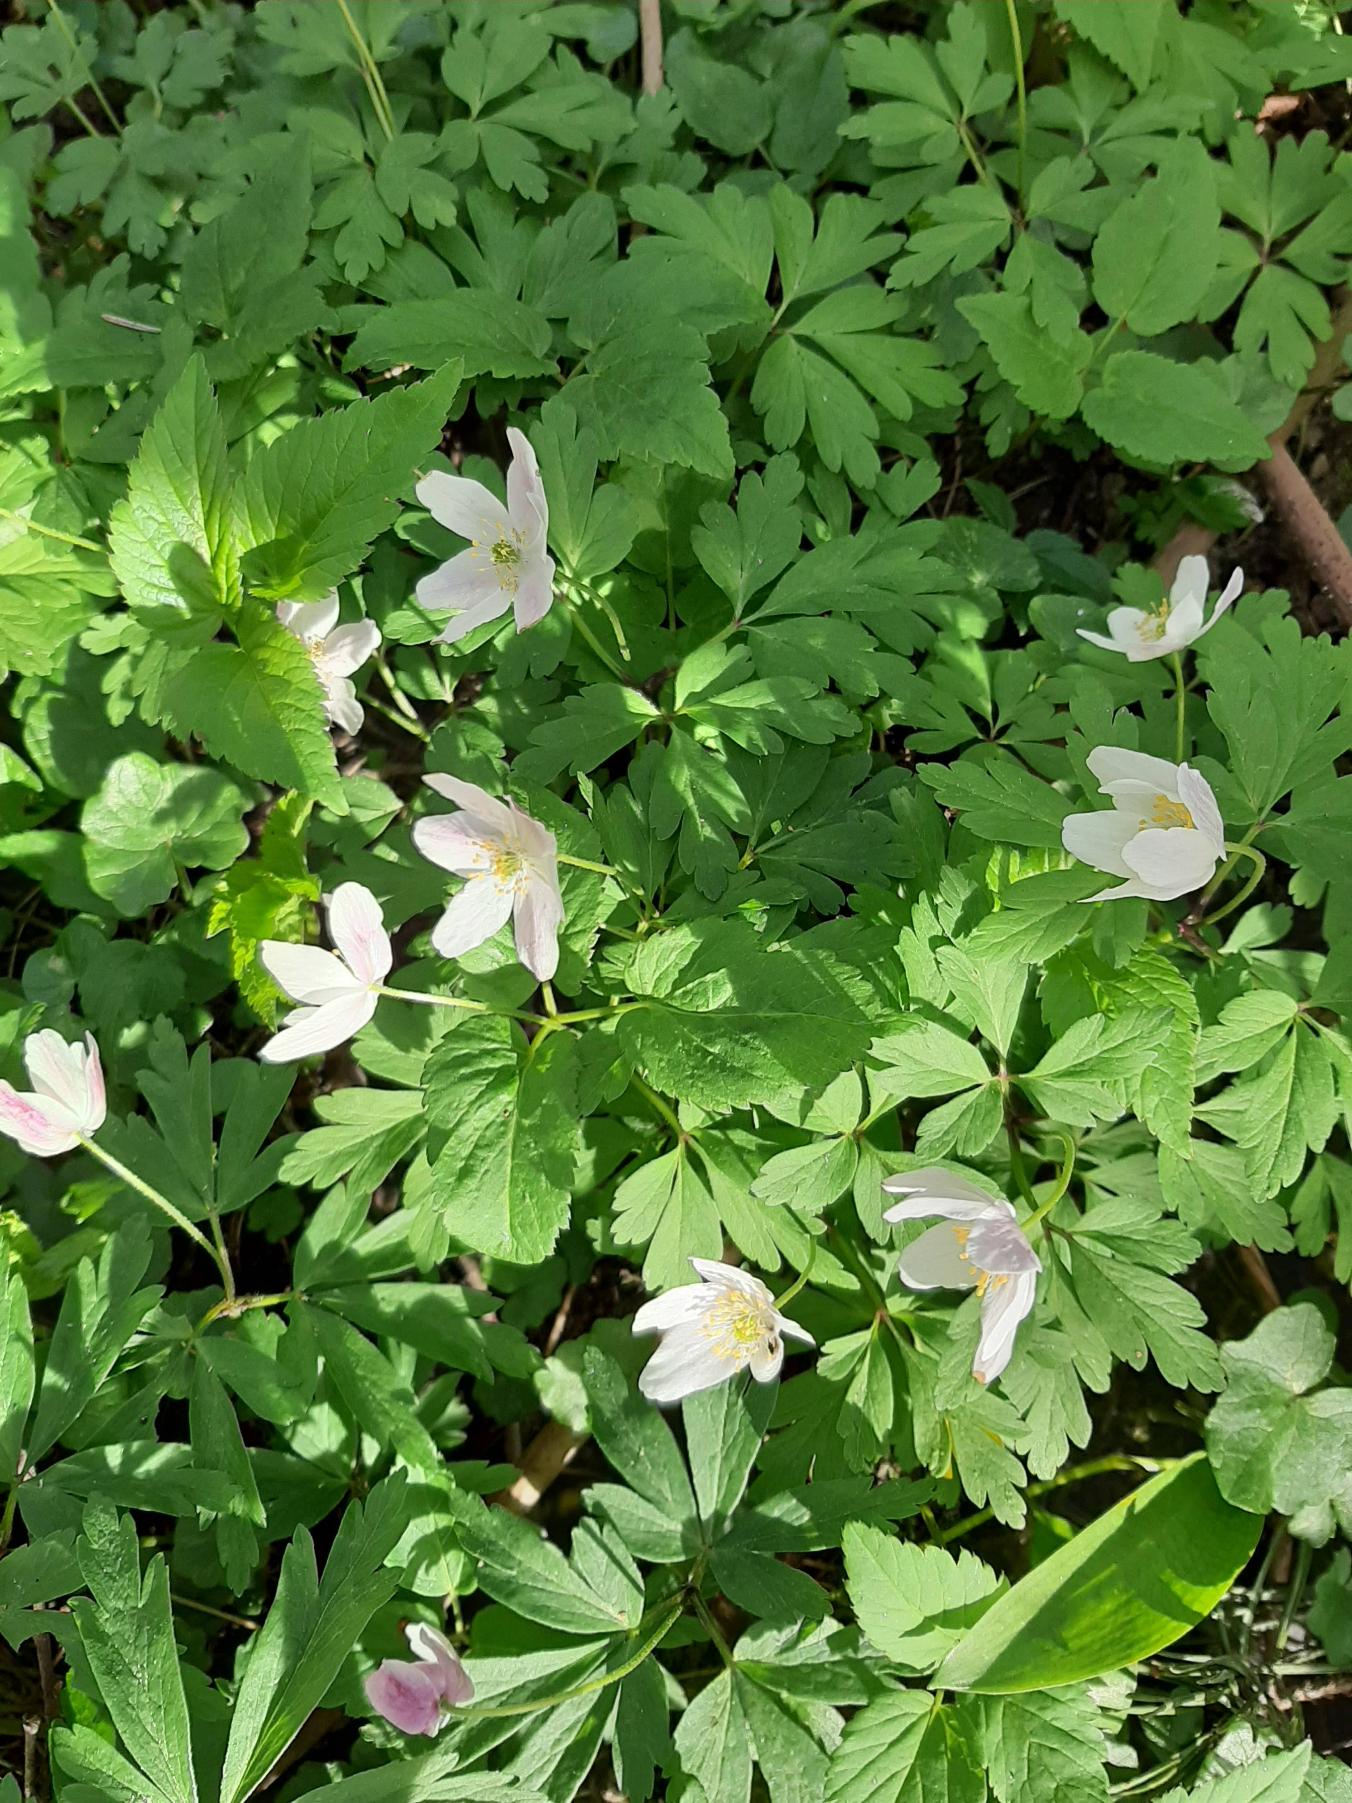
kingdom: Plantae
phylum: Tracheophyta
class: Magnoliopsida
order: Ranunculales
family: Ranunculaceae
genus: Anemone
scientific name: Anemone nemorosa
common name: Hvid anemone
